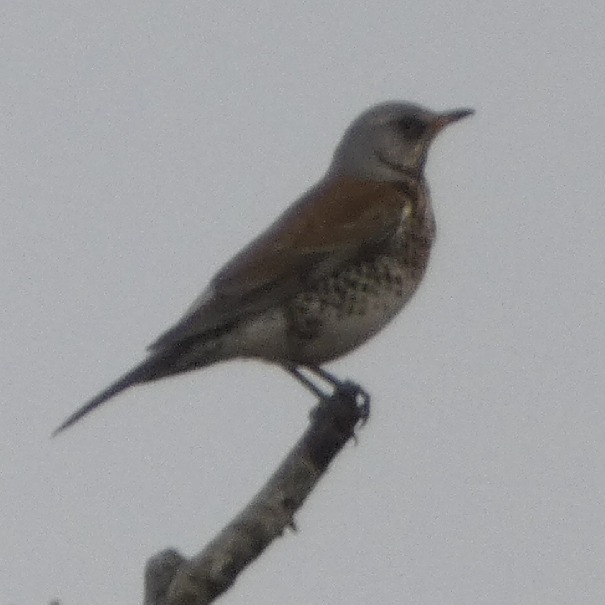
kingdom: Animalia
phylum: Chordata
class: Aves
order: Passeriformes
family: Turdidae
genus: Turdus
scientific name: Turdus pilaris
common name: Sjagger
